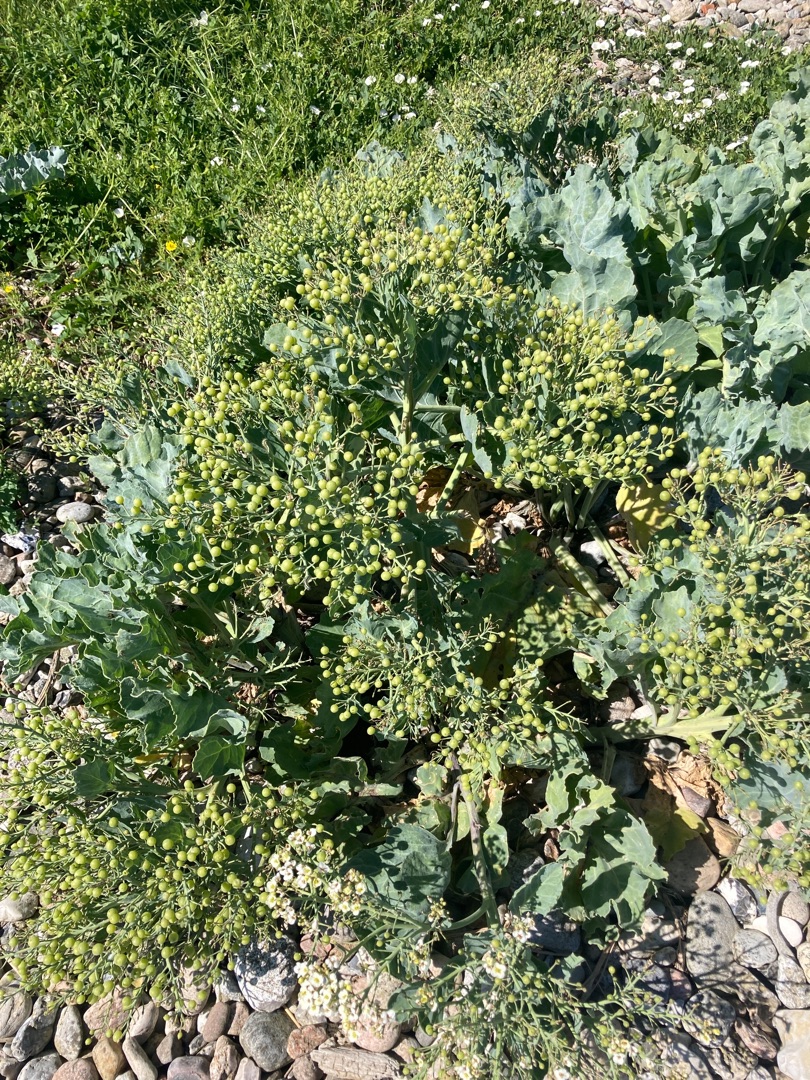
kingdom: Plantae
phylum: Tracheophyta
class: Magnoliopsida
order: Brassicales
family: Brassicaceae
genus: Crambe
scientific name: Crambe maritima
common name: Strandkål
